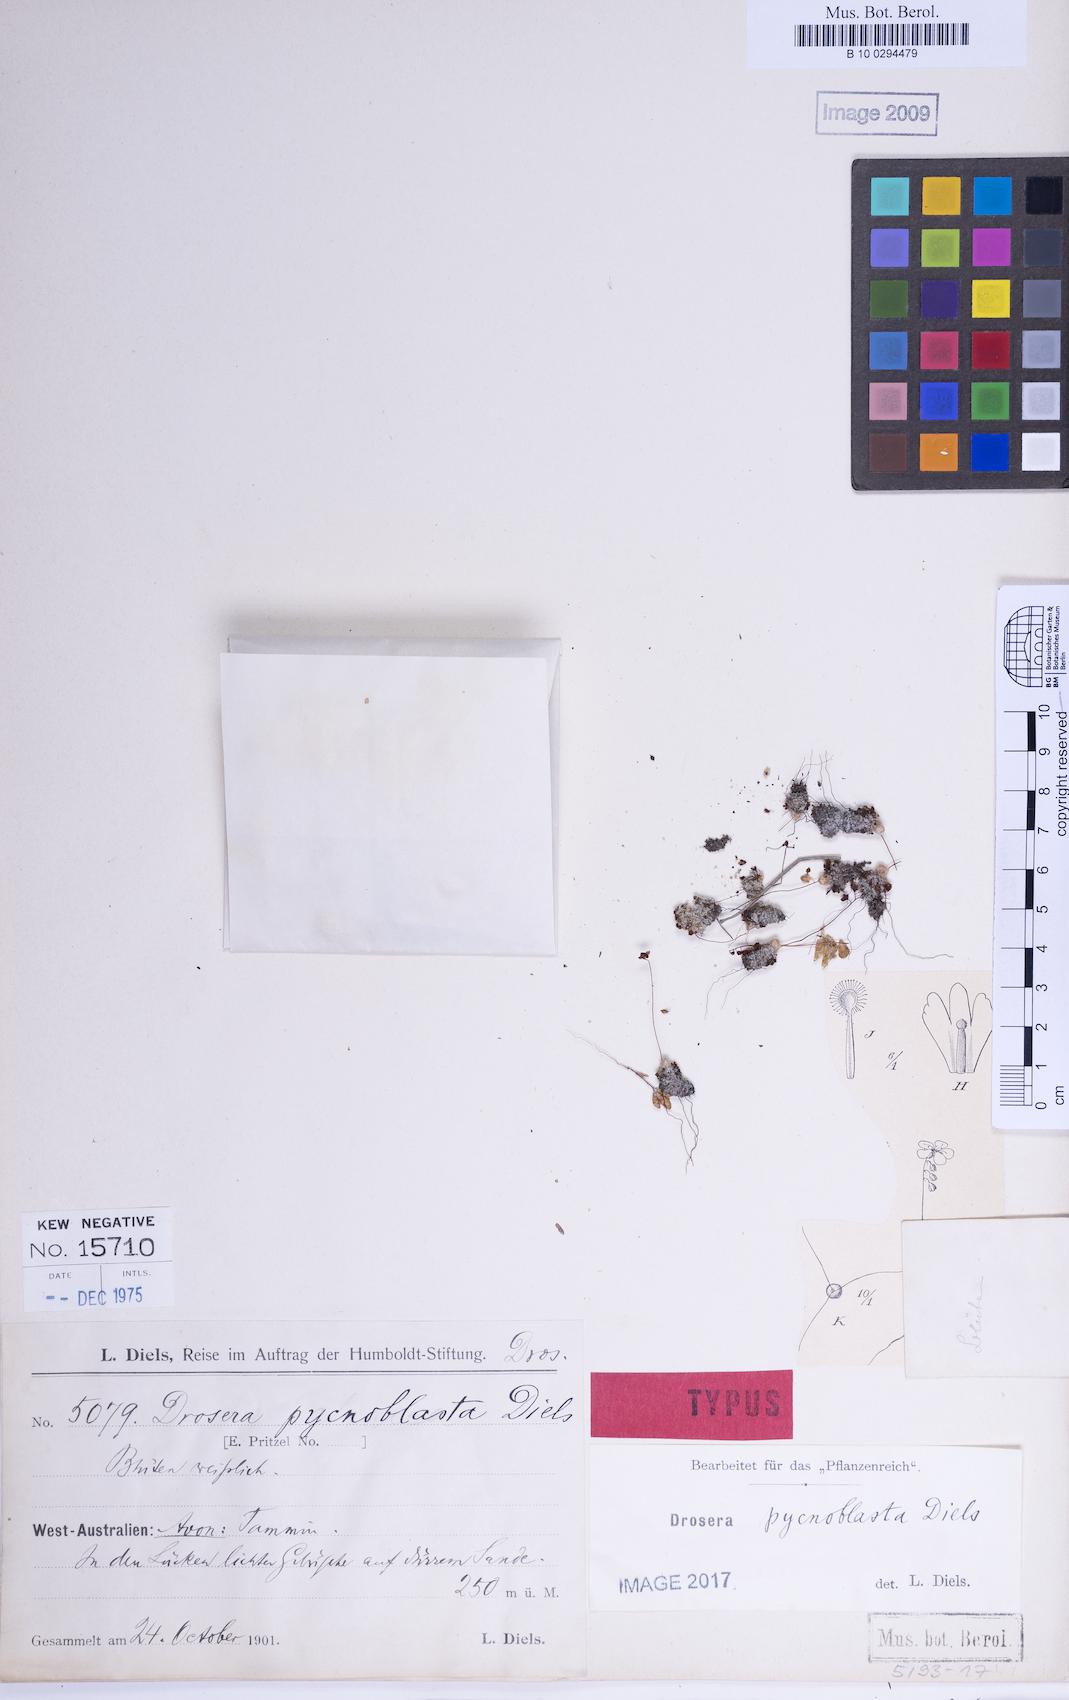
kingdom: Plantae
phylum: Tracheophyta
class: Magnoliopsida
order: Caryophyllales
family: Droseraceae
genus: Drosera
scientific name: Drosera pycnoblasta
